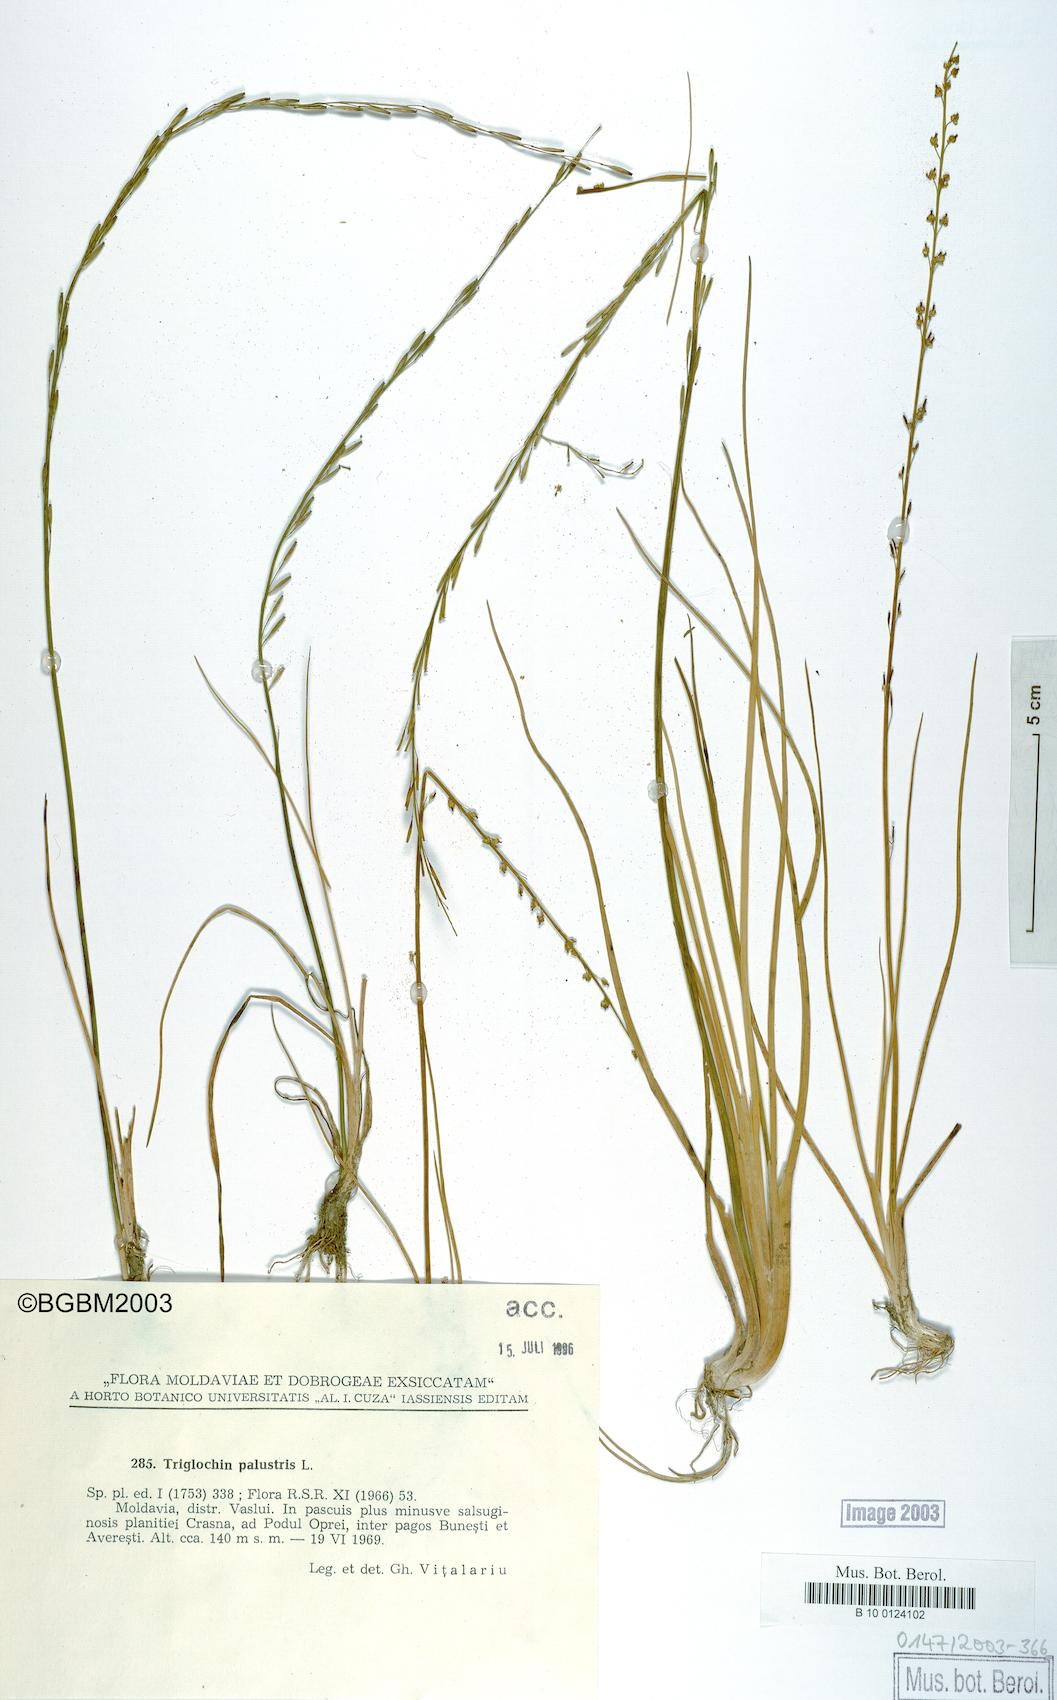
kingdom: Plantae
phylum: Tracheophyta
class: Liliopsida
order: Alismatales
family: Juncaginaceae
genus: Triglochin
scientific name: Triglochin palustris
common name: Marsh arrowgrass
